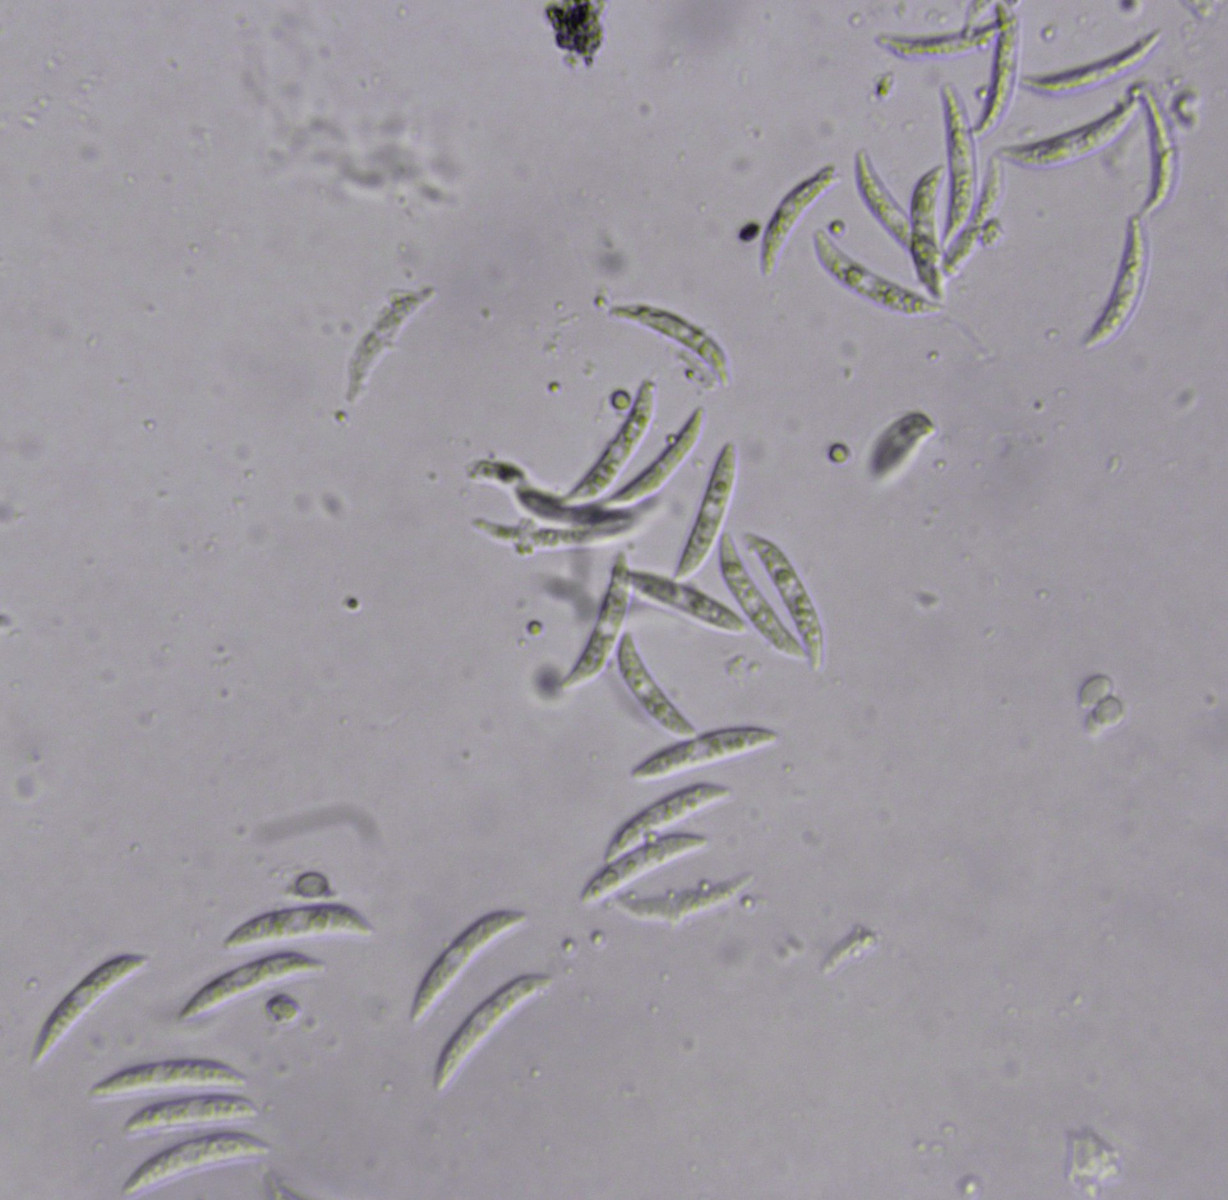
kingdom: Fungi
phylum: Ascomycota
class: Sordariomycetes
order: Glomerellales
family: Glomerellaceae
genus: Colletotrichum
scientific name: Colletotrichum dematium
